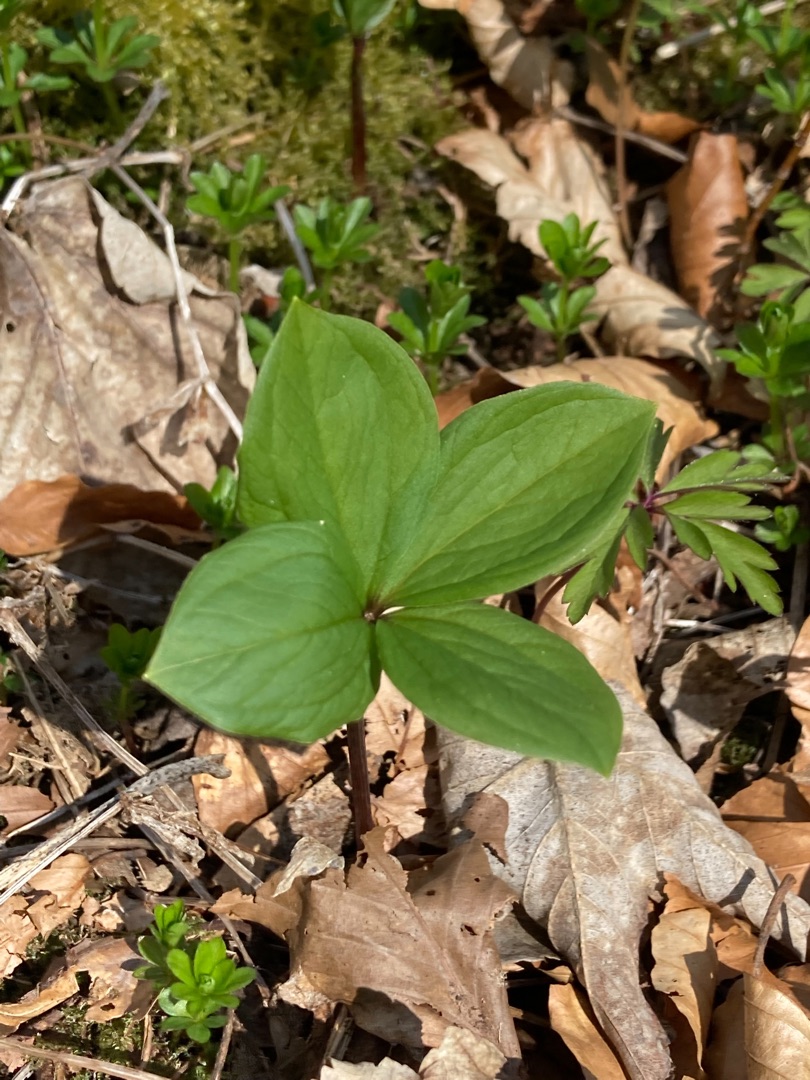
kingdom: Plantae
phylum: Tracheophyta
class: Liliopsida
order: Liliales
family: Melanthiaceae
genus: Paris
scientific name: Paris quadrifolia
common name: Firblad
